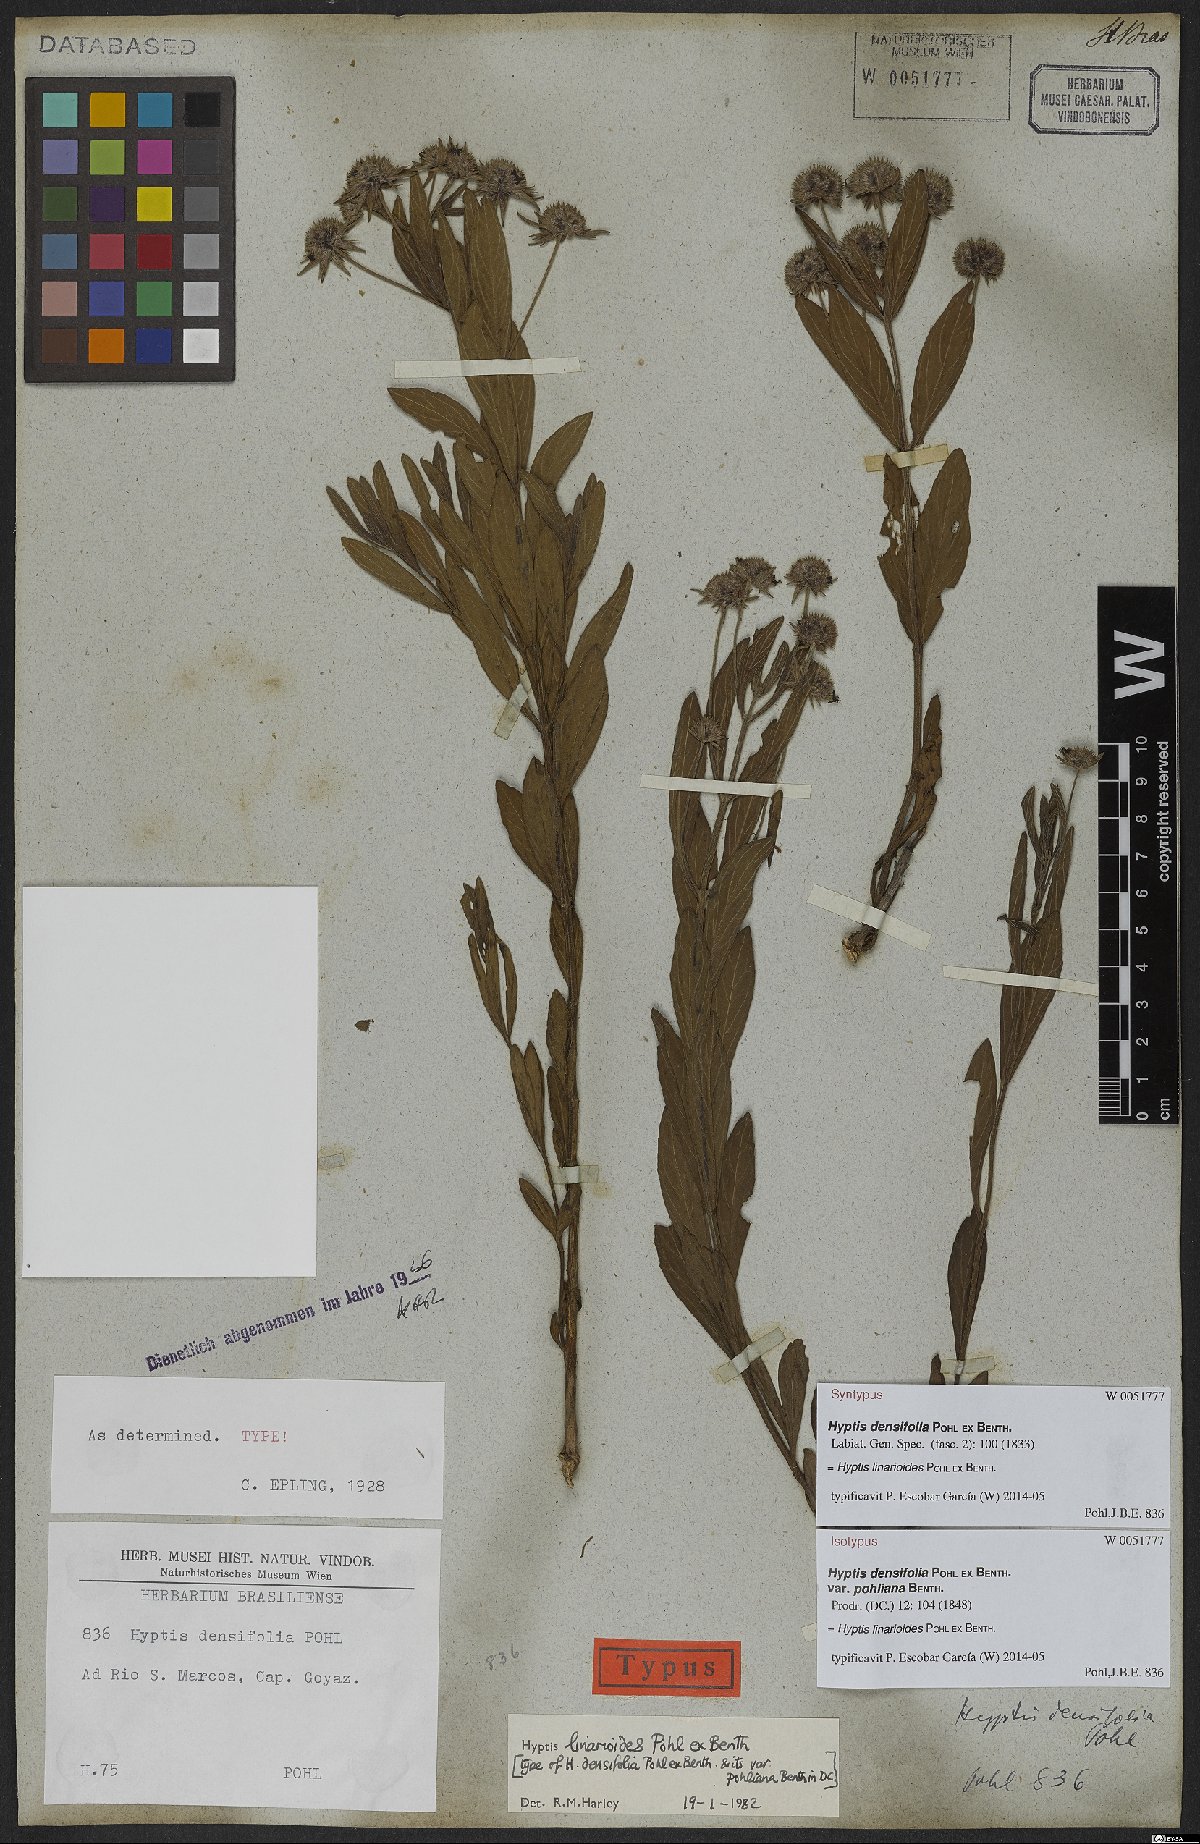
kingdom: Plantae
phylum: Tracheophyta
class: Magnoliopsida
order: Lamiales
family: Lamiaceae
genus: Hyptis
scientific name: Hyptis linarioides
